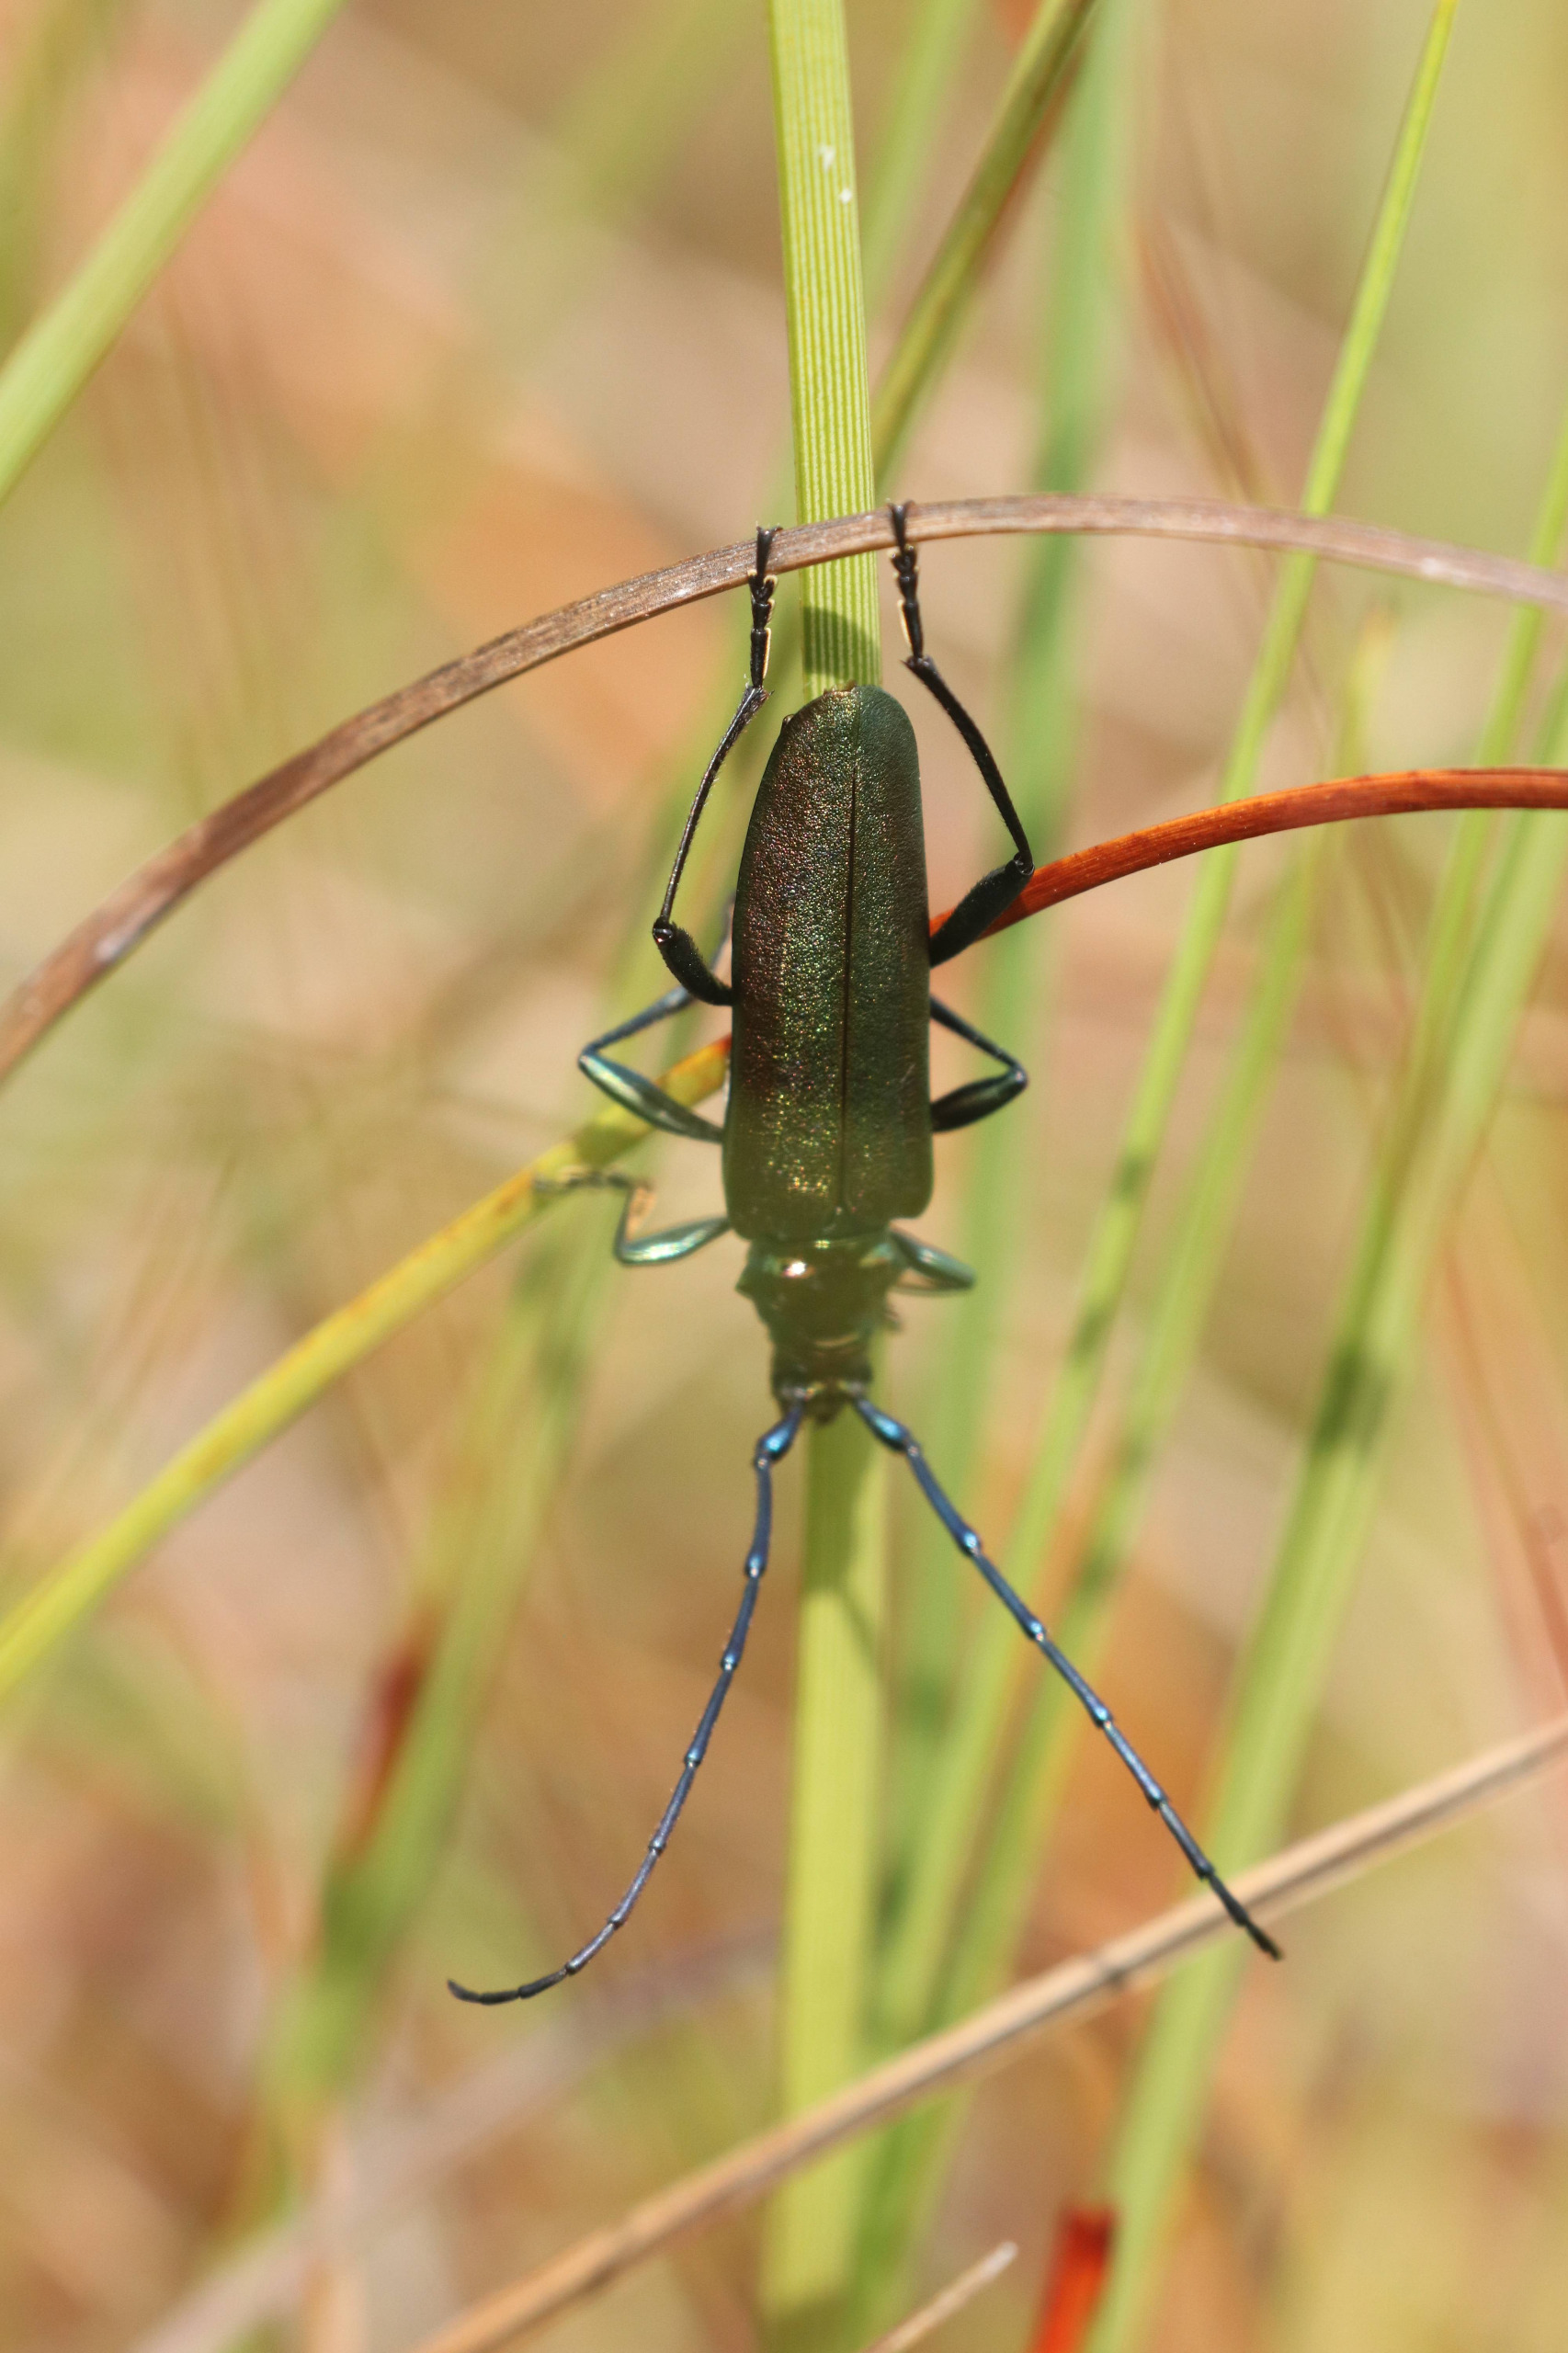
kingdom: Animalia
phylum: Arthropoda
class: Insecta
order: Coleoptera
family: Cerambycidae
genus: Aromia
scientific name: Aromia moschata
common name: Moskusbuk
